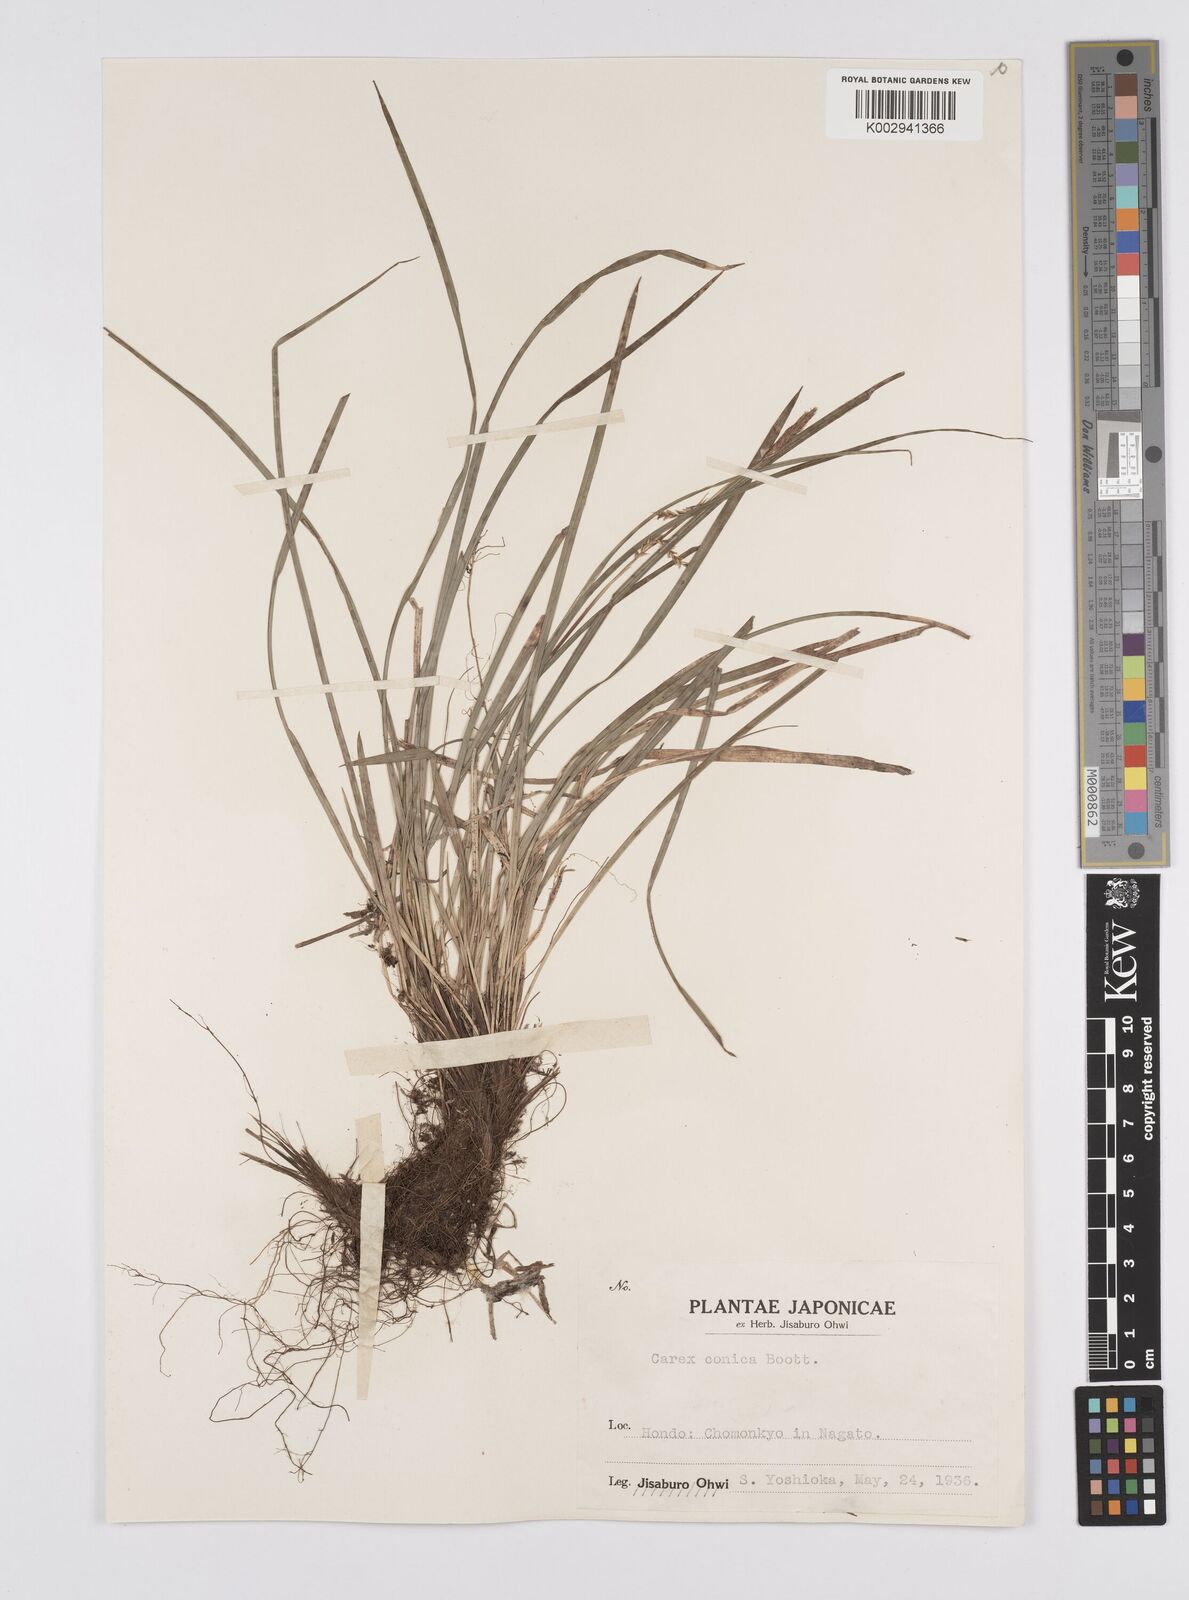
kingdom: Plantae
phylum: Tracheophyta
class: Liliopsida
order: Poales
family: Cyperaceae
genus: Carex
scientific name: Carex conica
